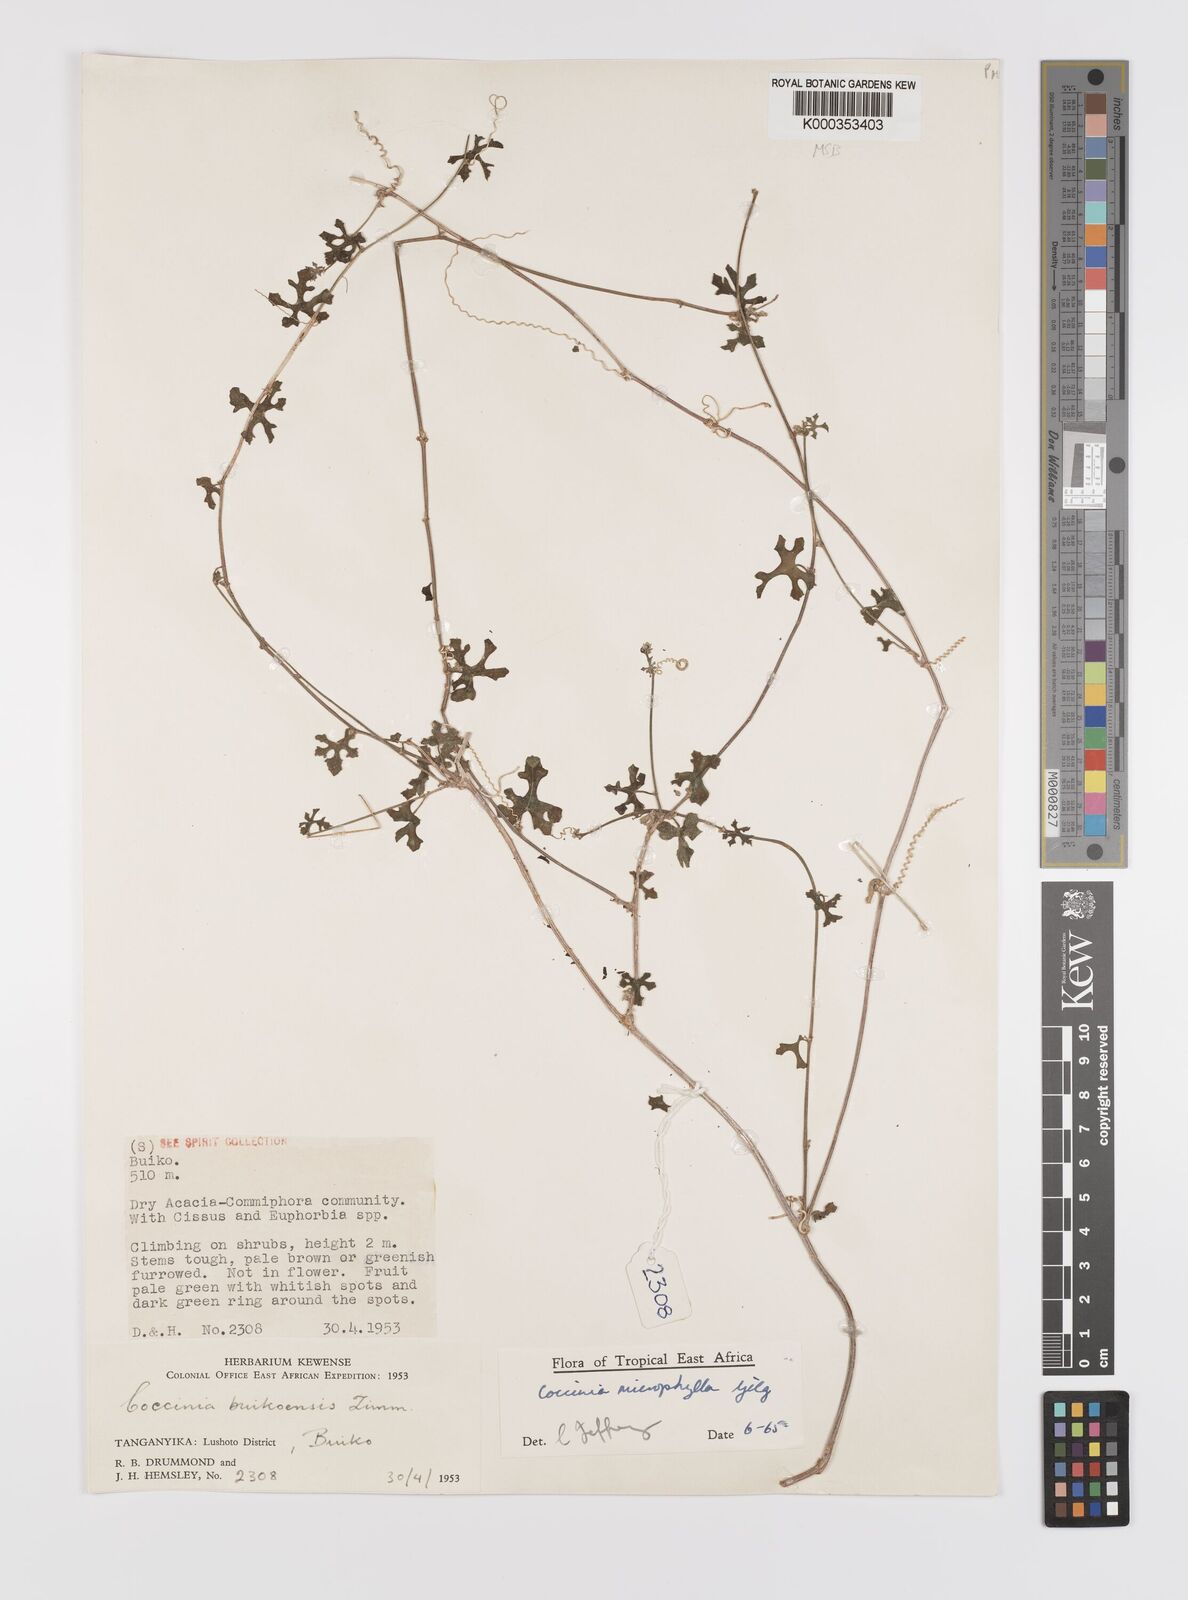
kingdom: Plantae
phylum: Tracheophyta
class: Magnoliopsida
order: Cucurbitales
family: Cucurbitaceae
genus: Coccinia
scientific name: Coccinia microphylla
